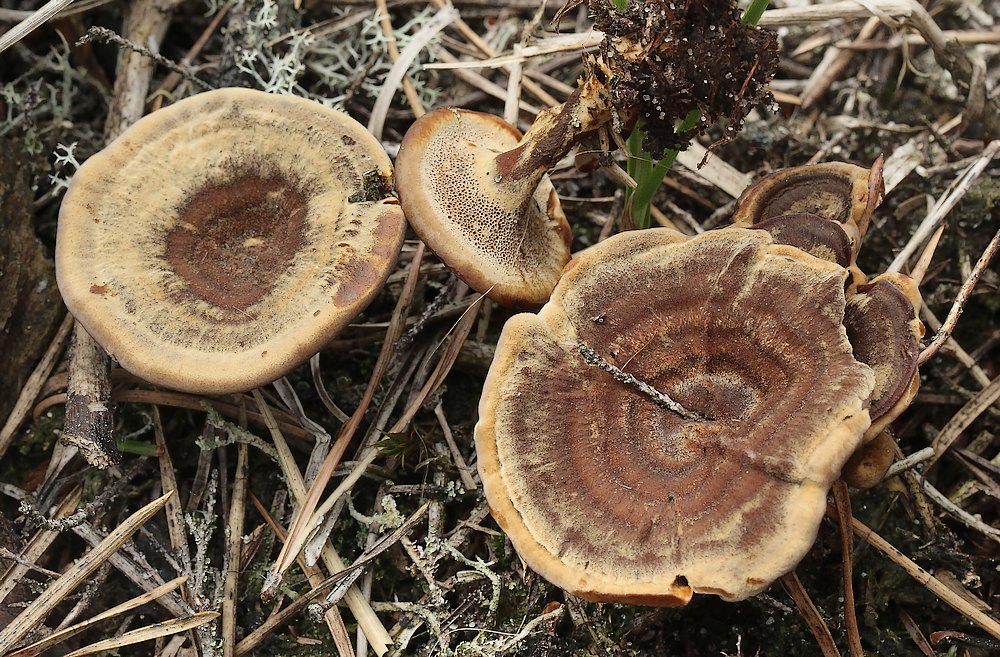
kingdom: Fungi
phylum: Basidiomycota
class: Agaricomycetes
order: Hymenochaetales
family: Hymenochaetaceae
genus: Coltricia
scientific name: Coltricia perennis
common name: almindelig sandporesvamp
